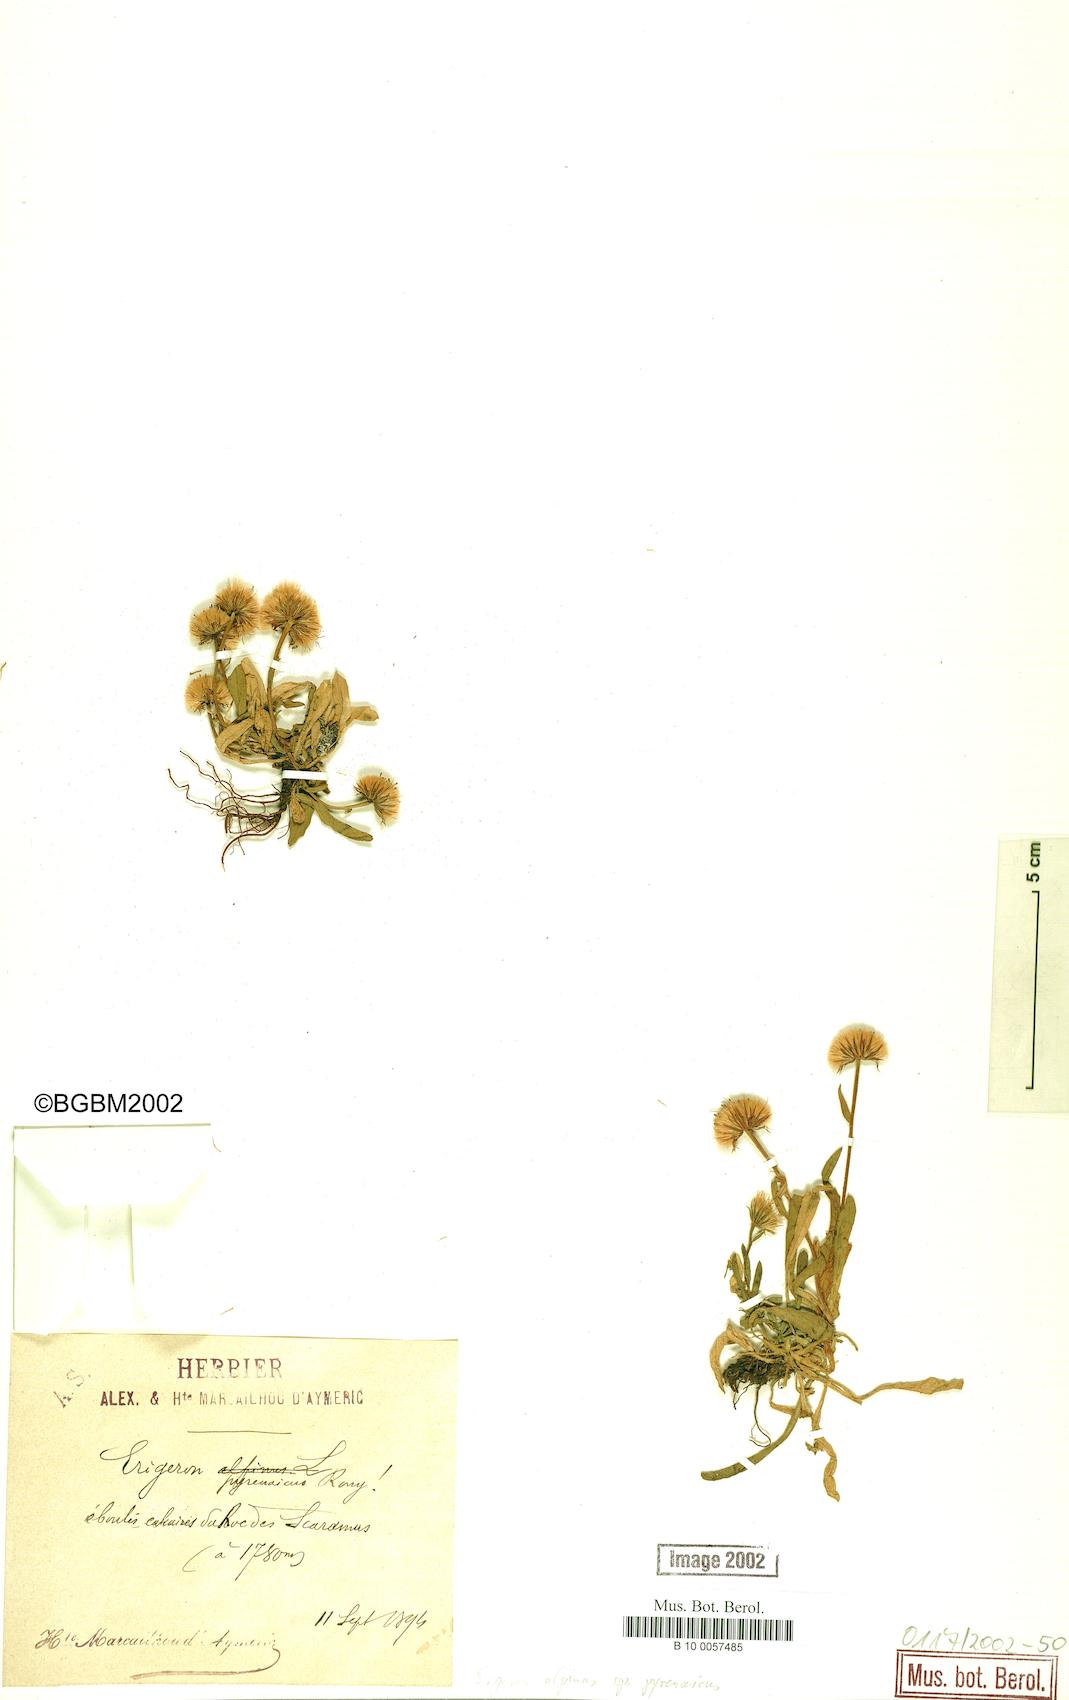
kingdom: Plantae
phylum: Tracheophyta
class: Magnoliopsida
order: Asterales
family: Asteraceae
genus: Erigeron
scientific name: Erigeron uniflorus
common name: Northern daisy
